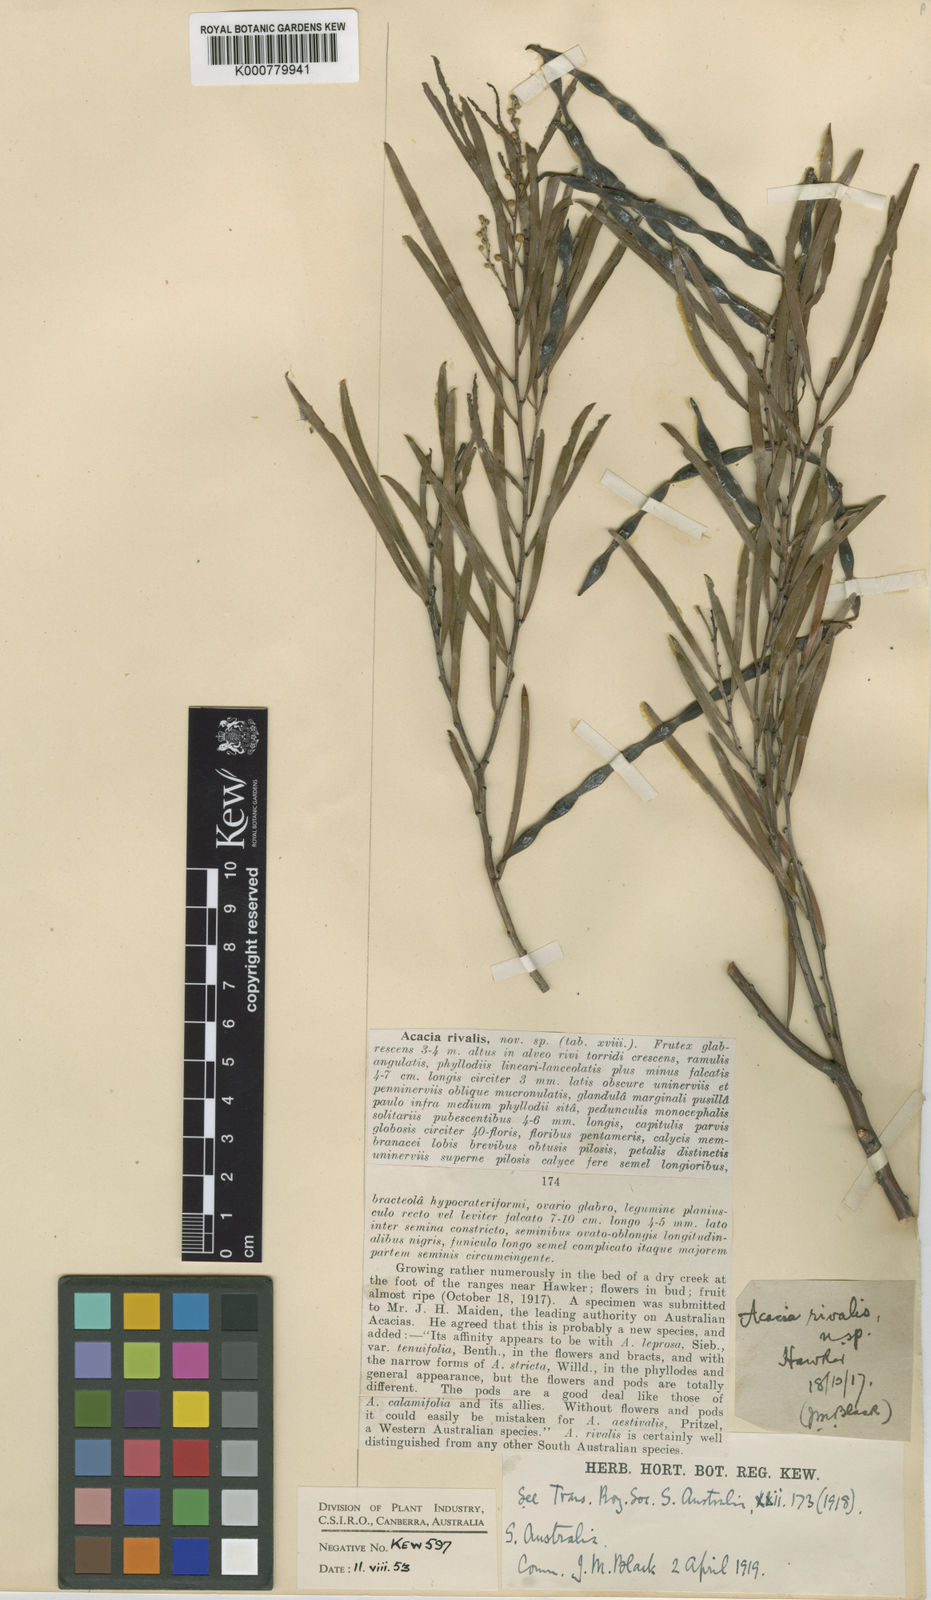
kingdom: Plantae
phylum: Tracheophyta
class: Magnoliopsida
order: Fabales
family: Fabaceae
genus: Acacia
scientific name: Acacia rivalis
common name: Creek wattle
